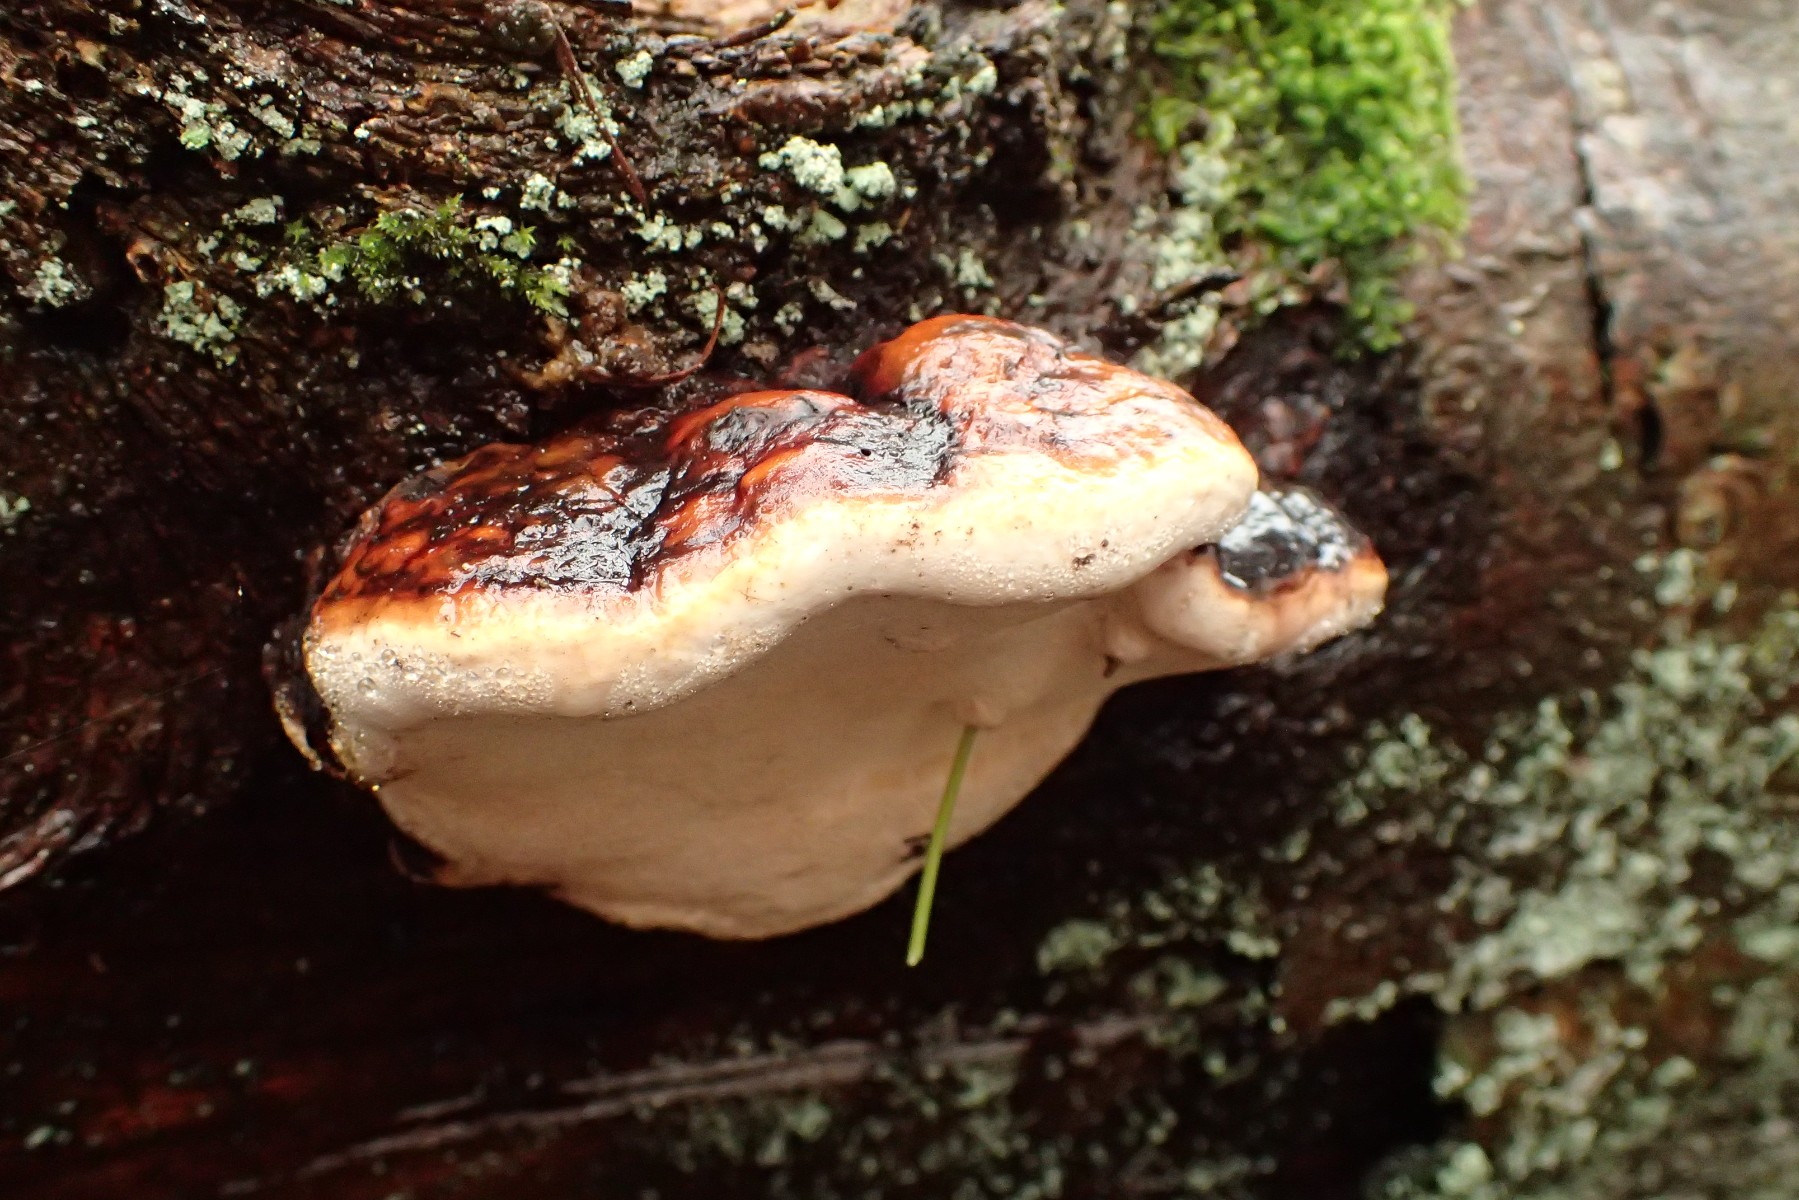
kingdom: Fungi
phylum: Basidiomycota
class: Agaricomycetes
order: Polyporales
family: Fomitopsidaceae
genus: Fomitopsis
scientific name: Fomitopsis pinicola
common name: randbæltet hovporesvamp
